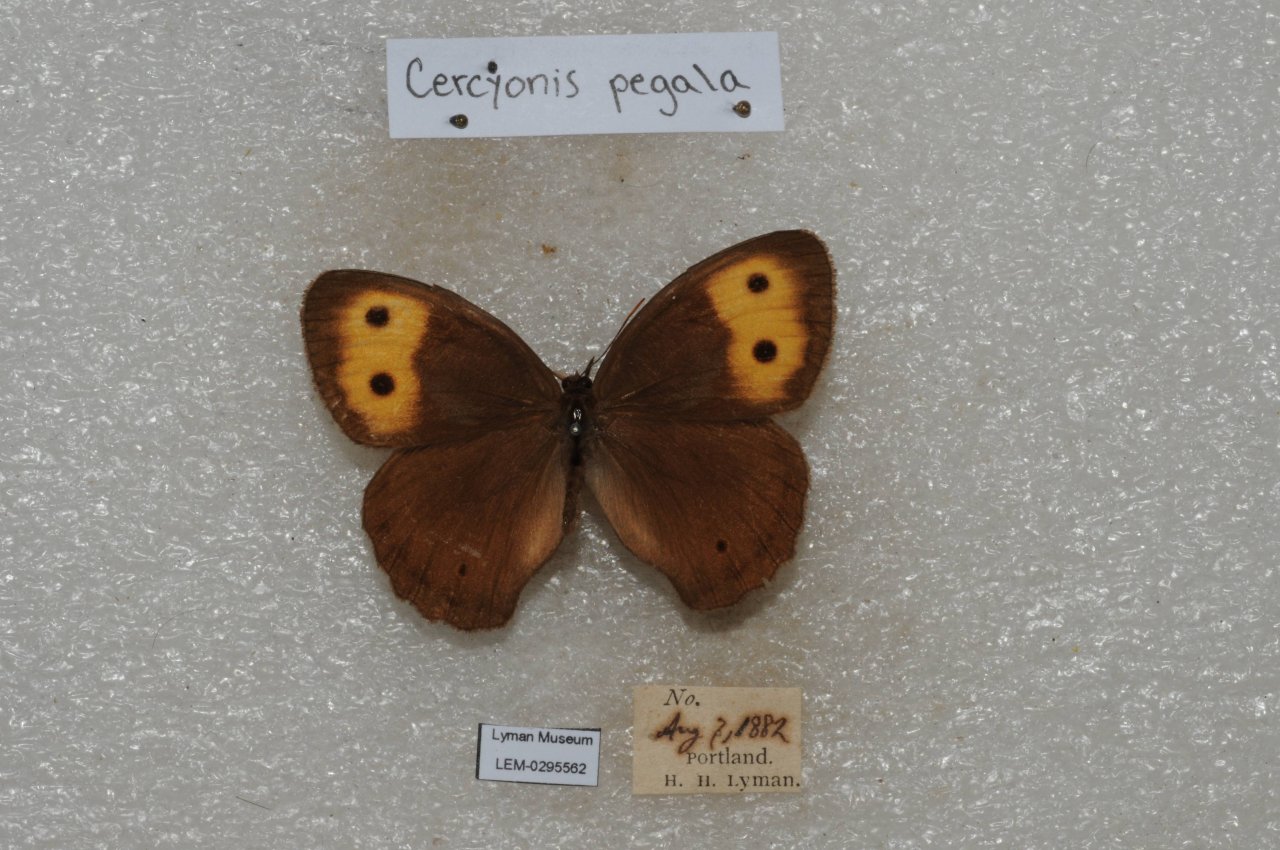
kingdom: Animalia
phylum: Arthropoda
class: Insecta
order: Lepidoptera
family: Nymphalidae
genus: Cercyonis
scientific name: Cercyonis pegala
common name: Common Wood-Nymph
